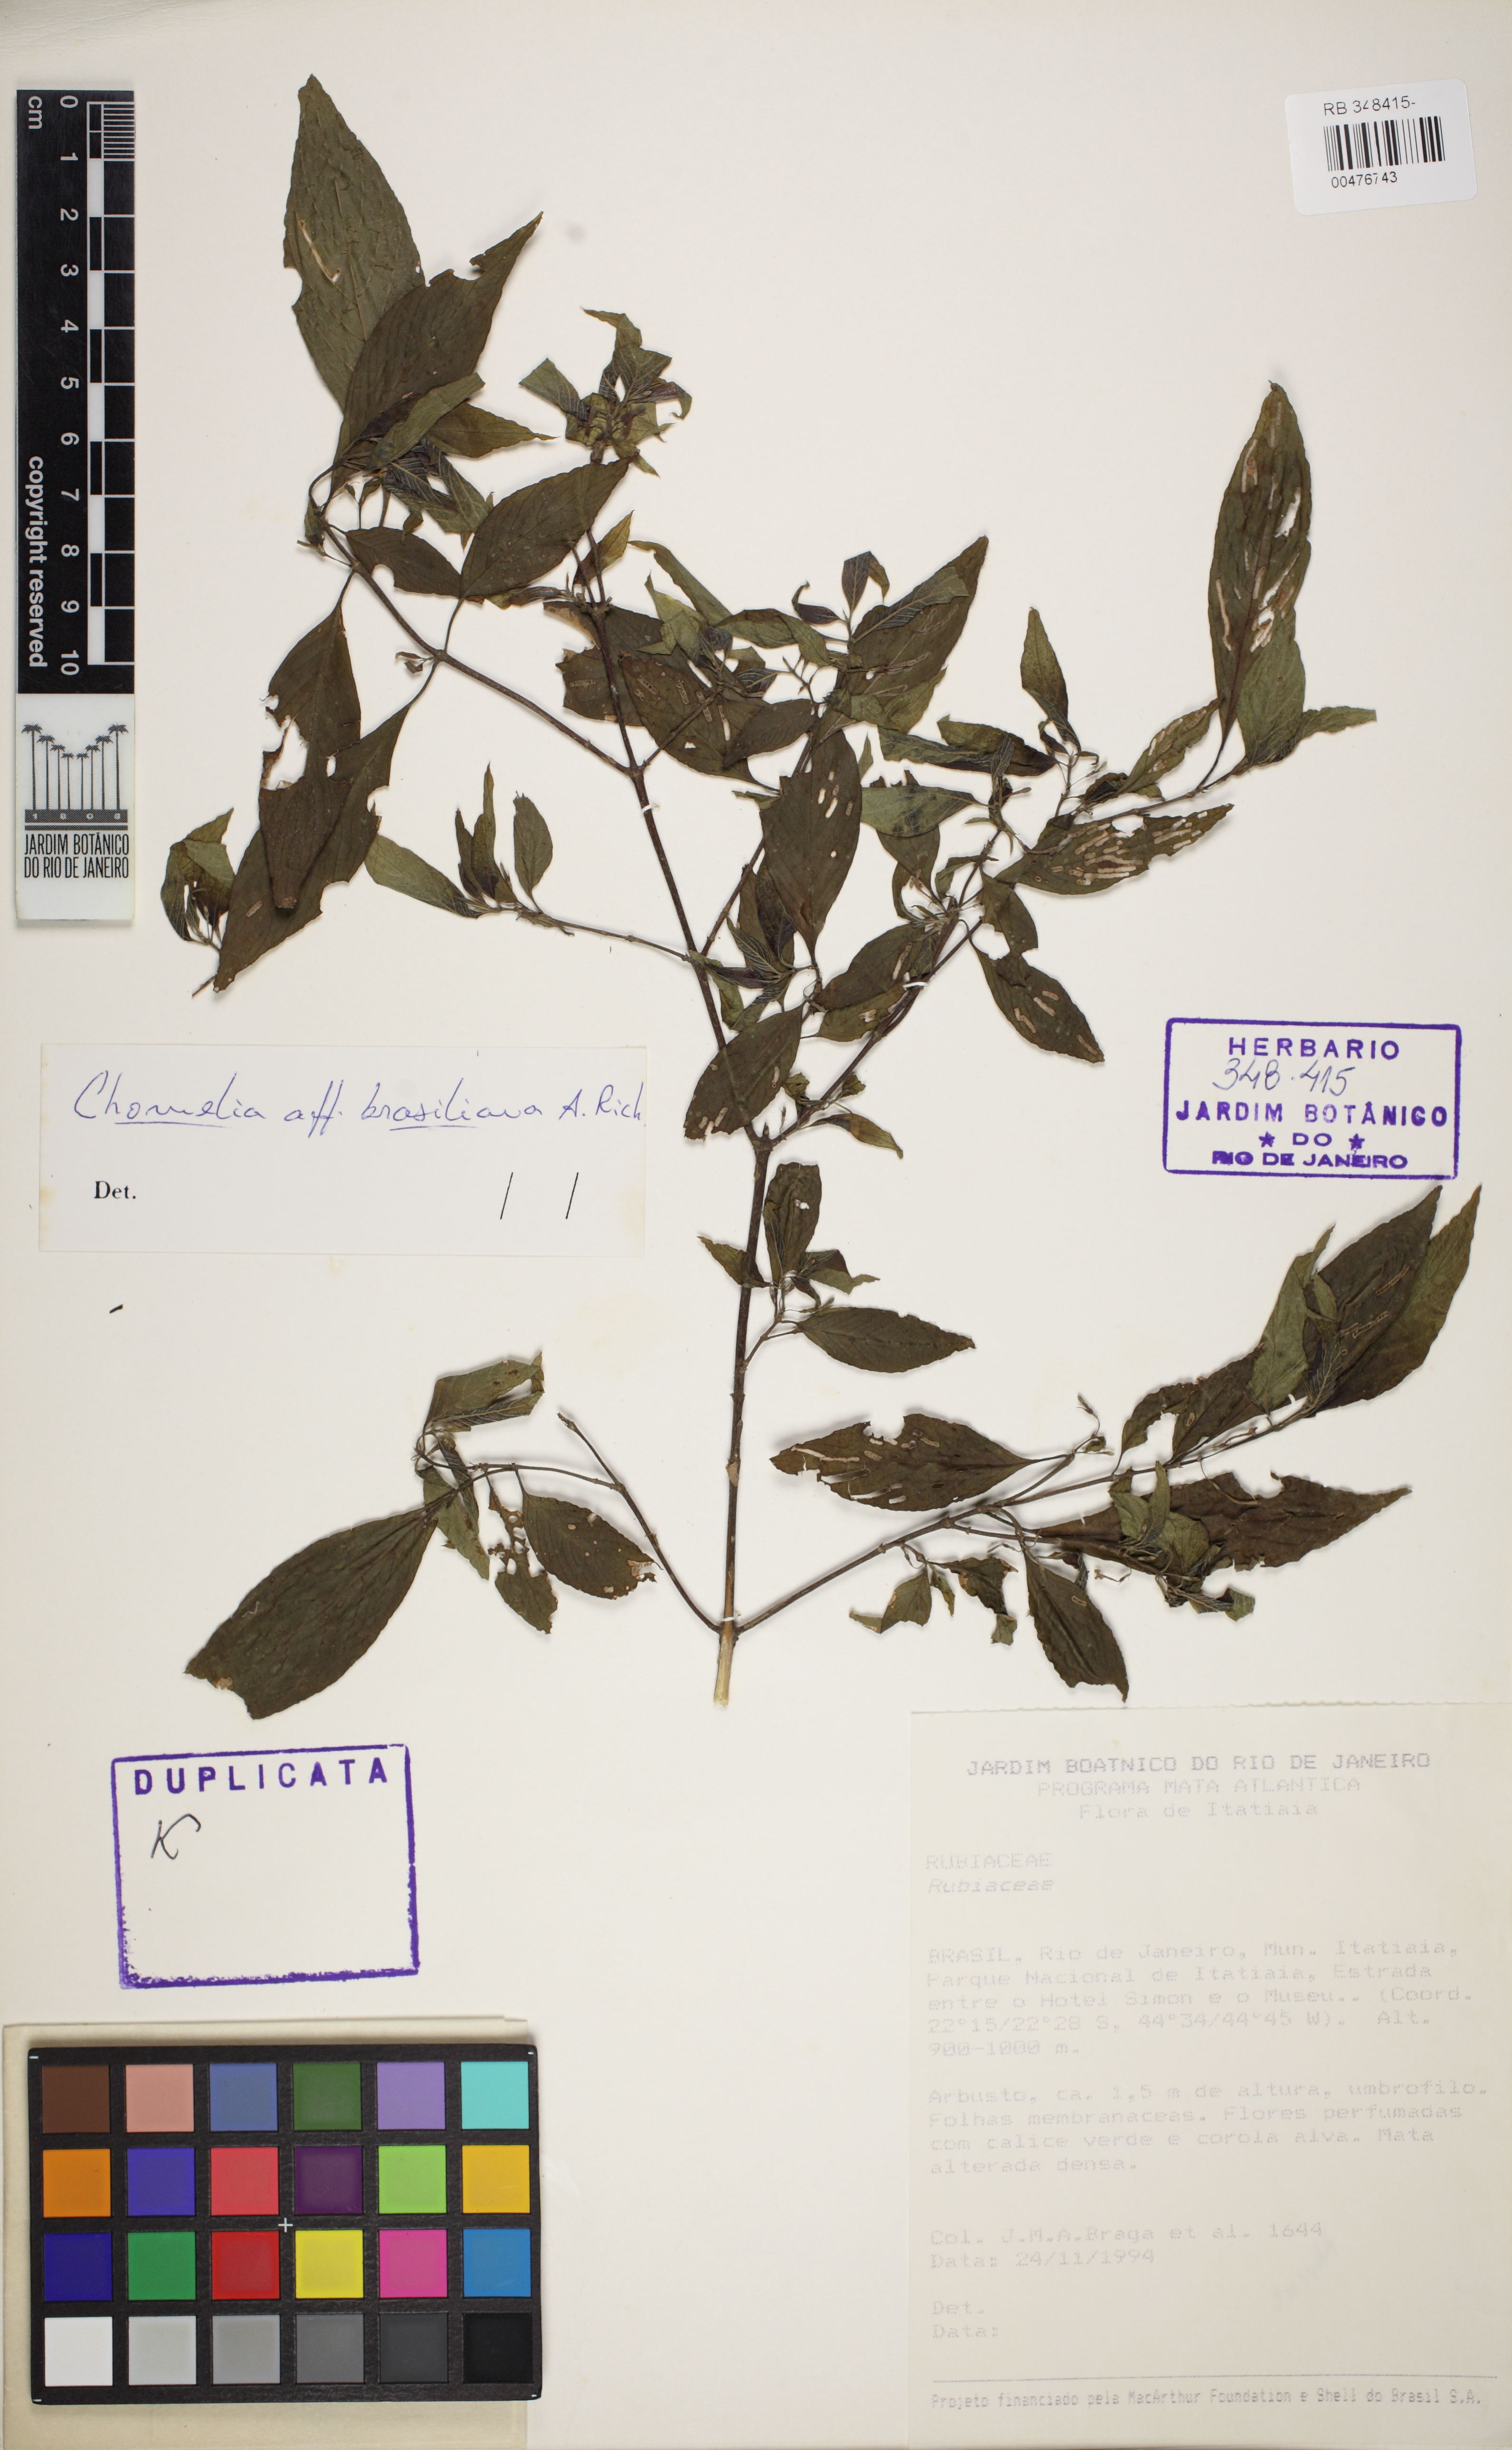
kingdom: Plantae
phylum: Tracheophyta
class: Magnoliopsida
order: Gentianales
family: Rubiaceae
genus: Chomelia
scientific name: Chomelia brasiliana
